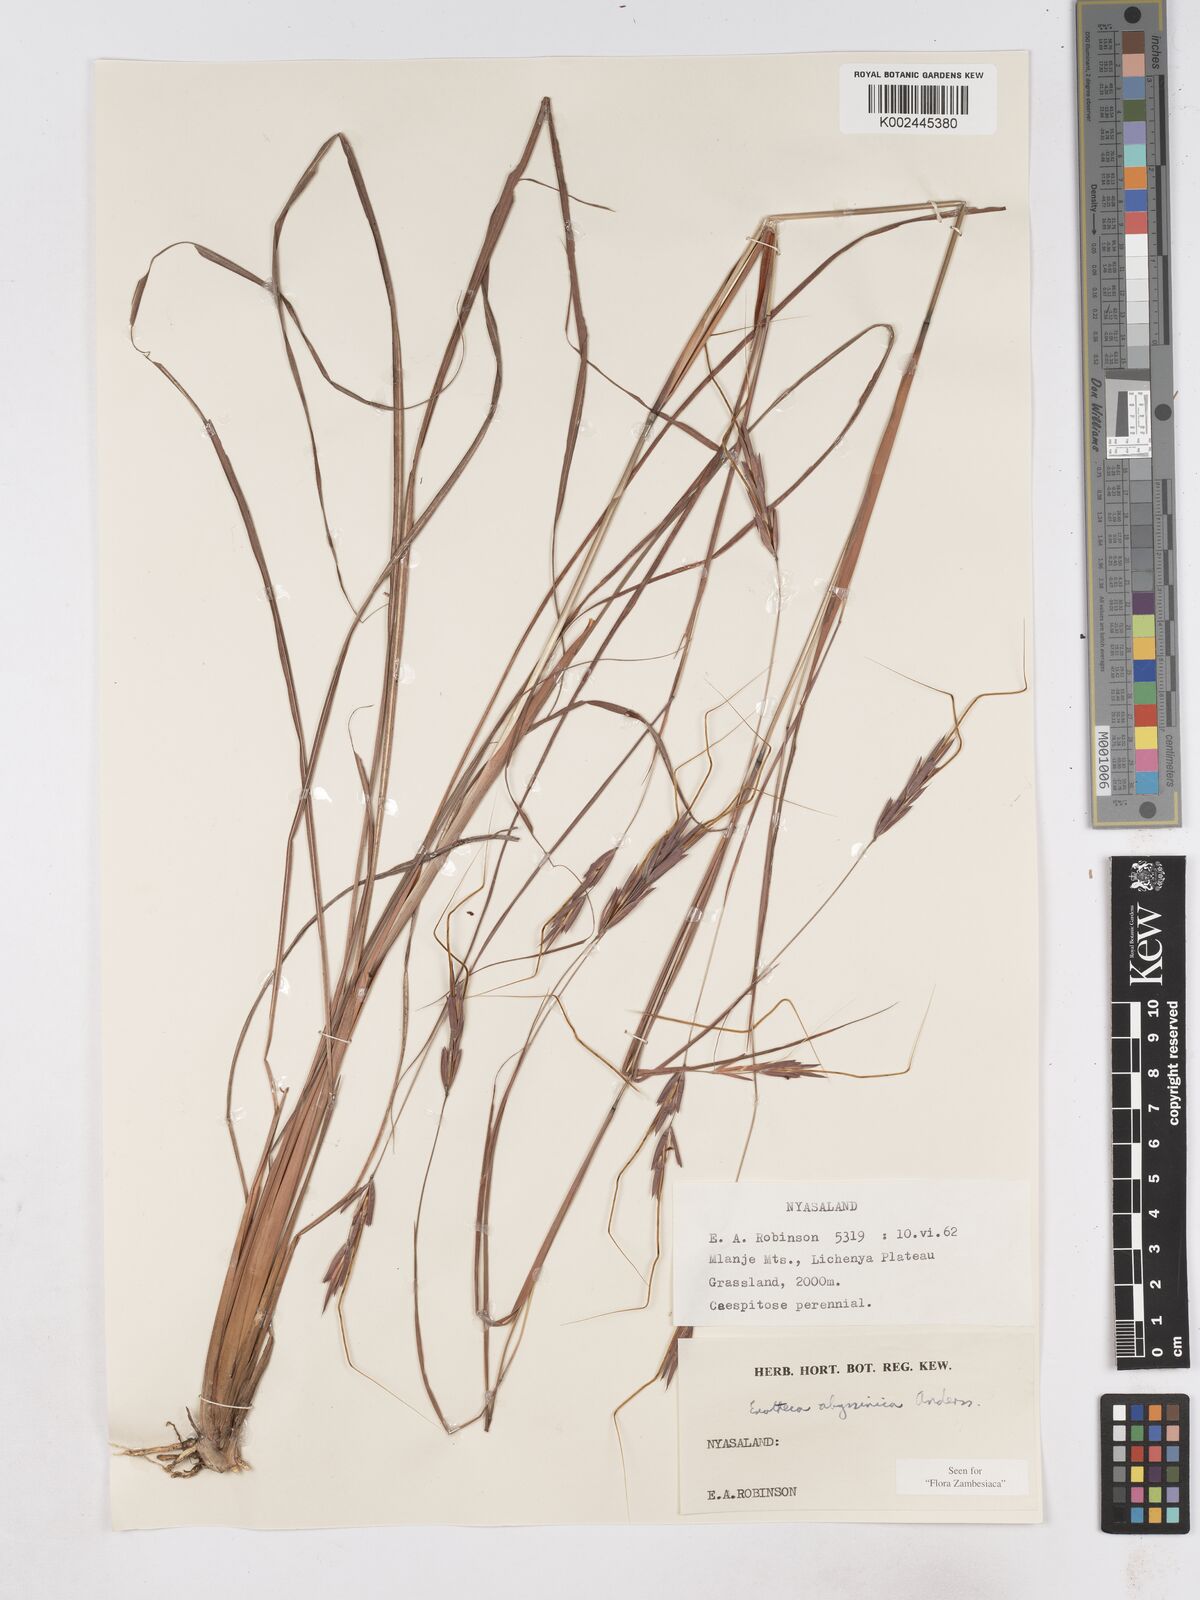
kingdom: Plantae
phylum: Tracheophyta
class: Liliopsida
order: Poales
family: Poaceae
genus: Exotheca
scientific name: Exotheca abyssinica
